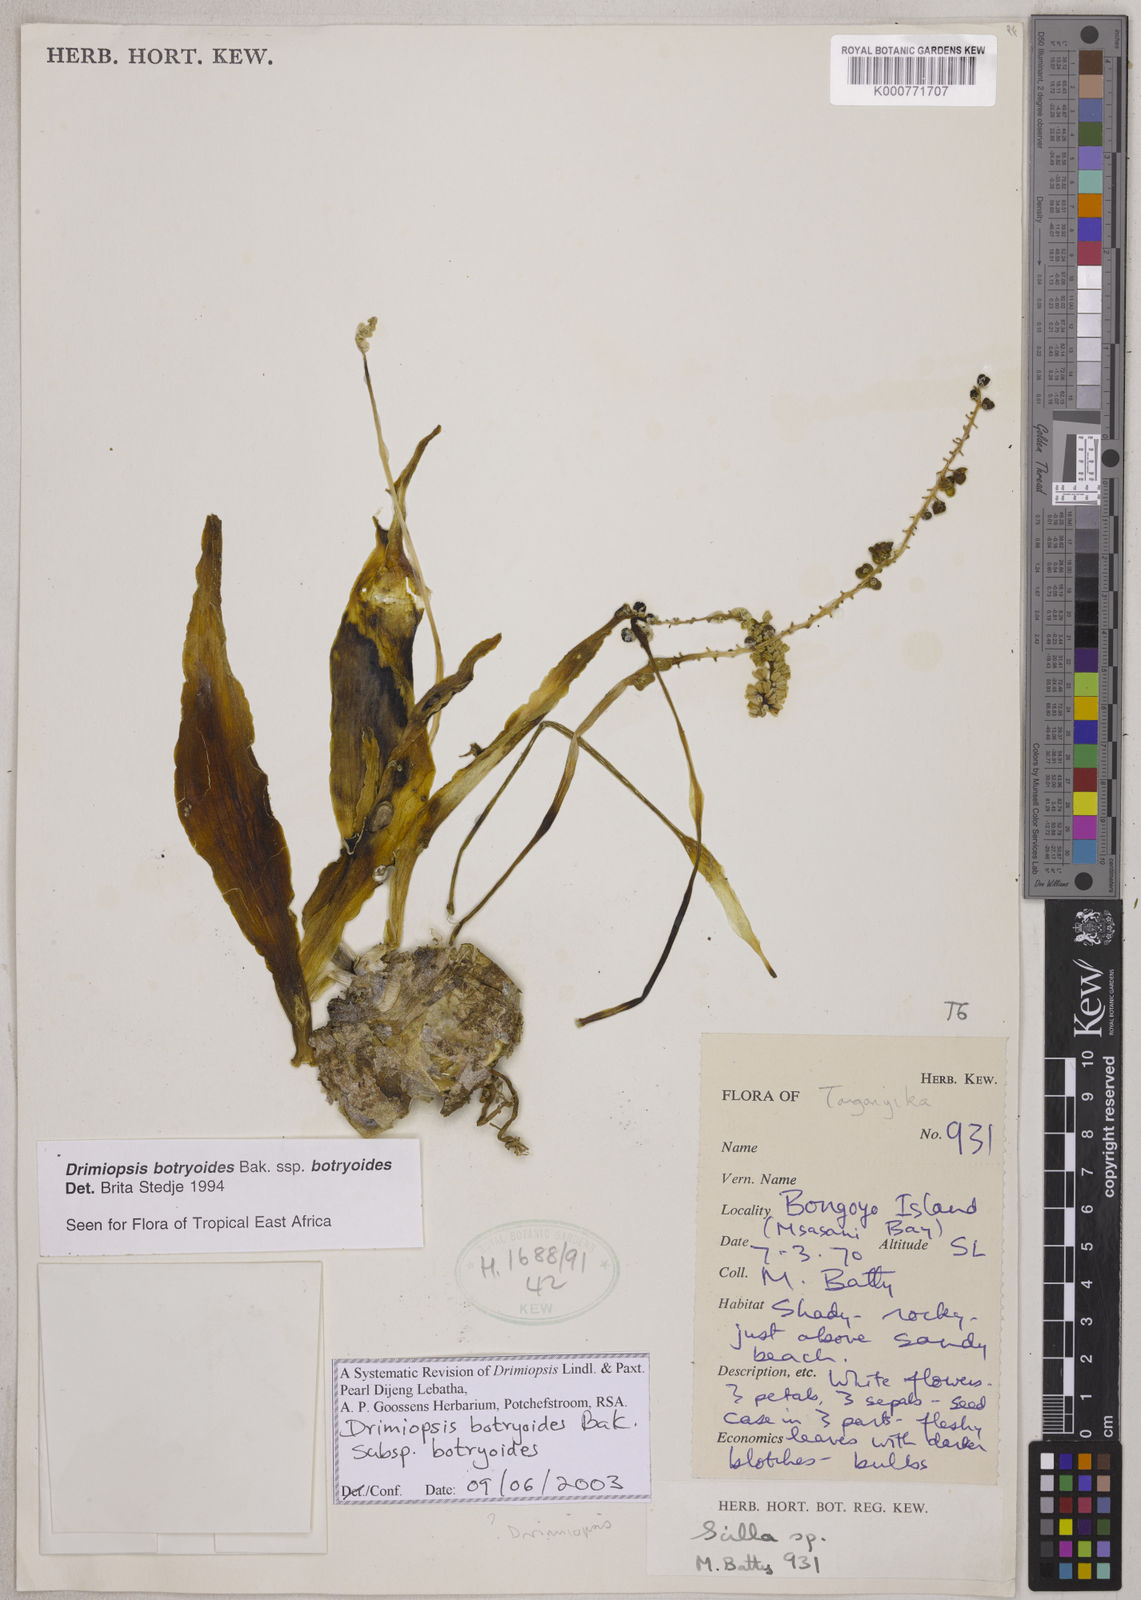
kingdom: Plantae
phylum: Tracheophyta
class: Liliopsida
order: Asparagales
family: Asparagaceae
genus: Drimiopsis
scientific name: Drimiopsis botryoides
